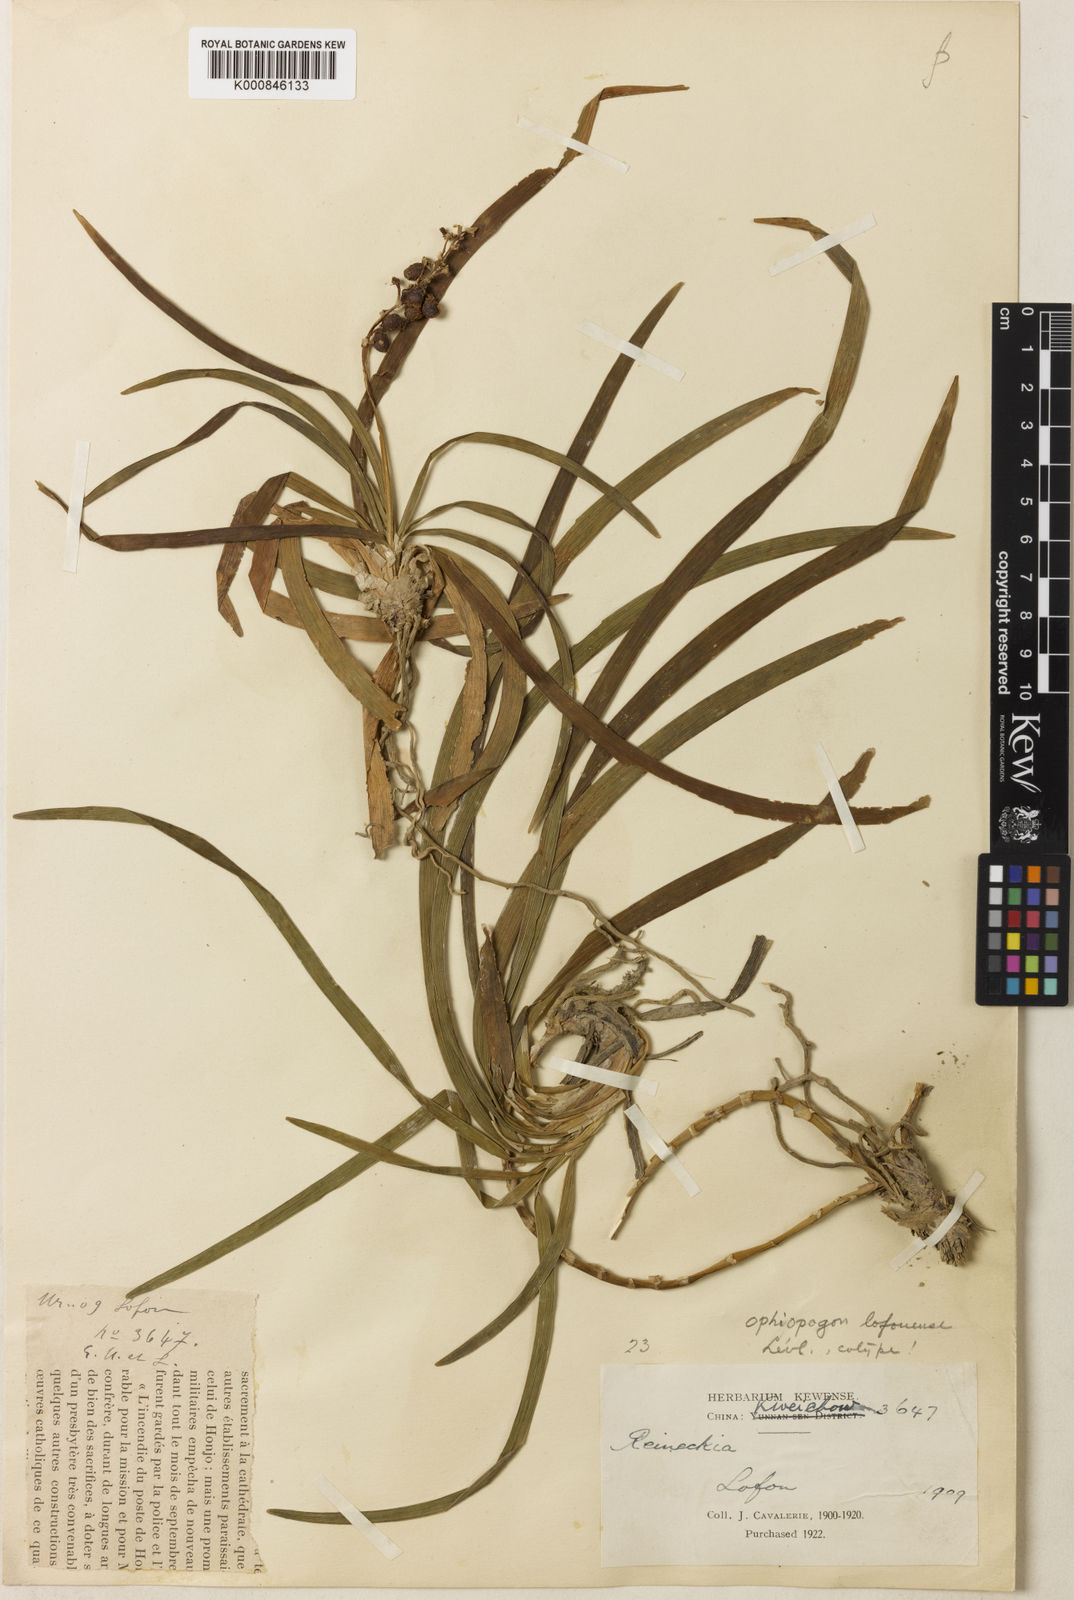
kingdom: Plantae
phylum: Tracheophyta
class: Liliopsida
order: Asparagales
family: Asparagaceae
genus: Ophiopogon
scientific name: Ophiopogon
